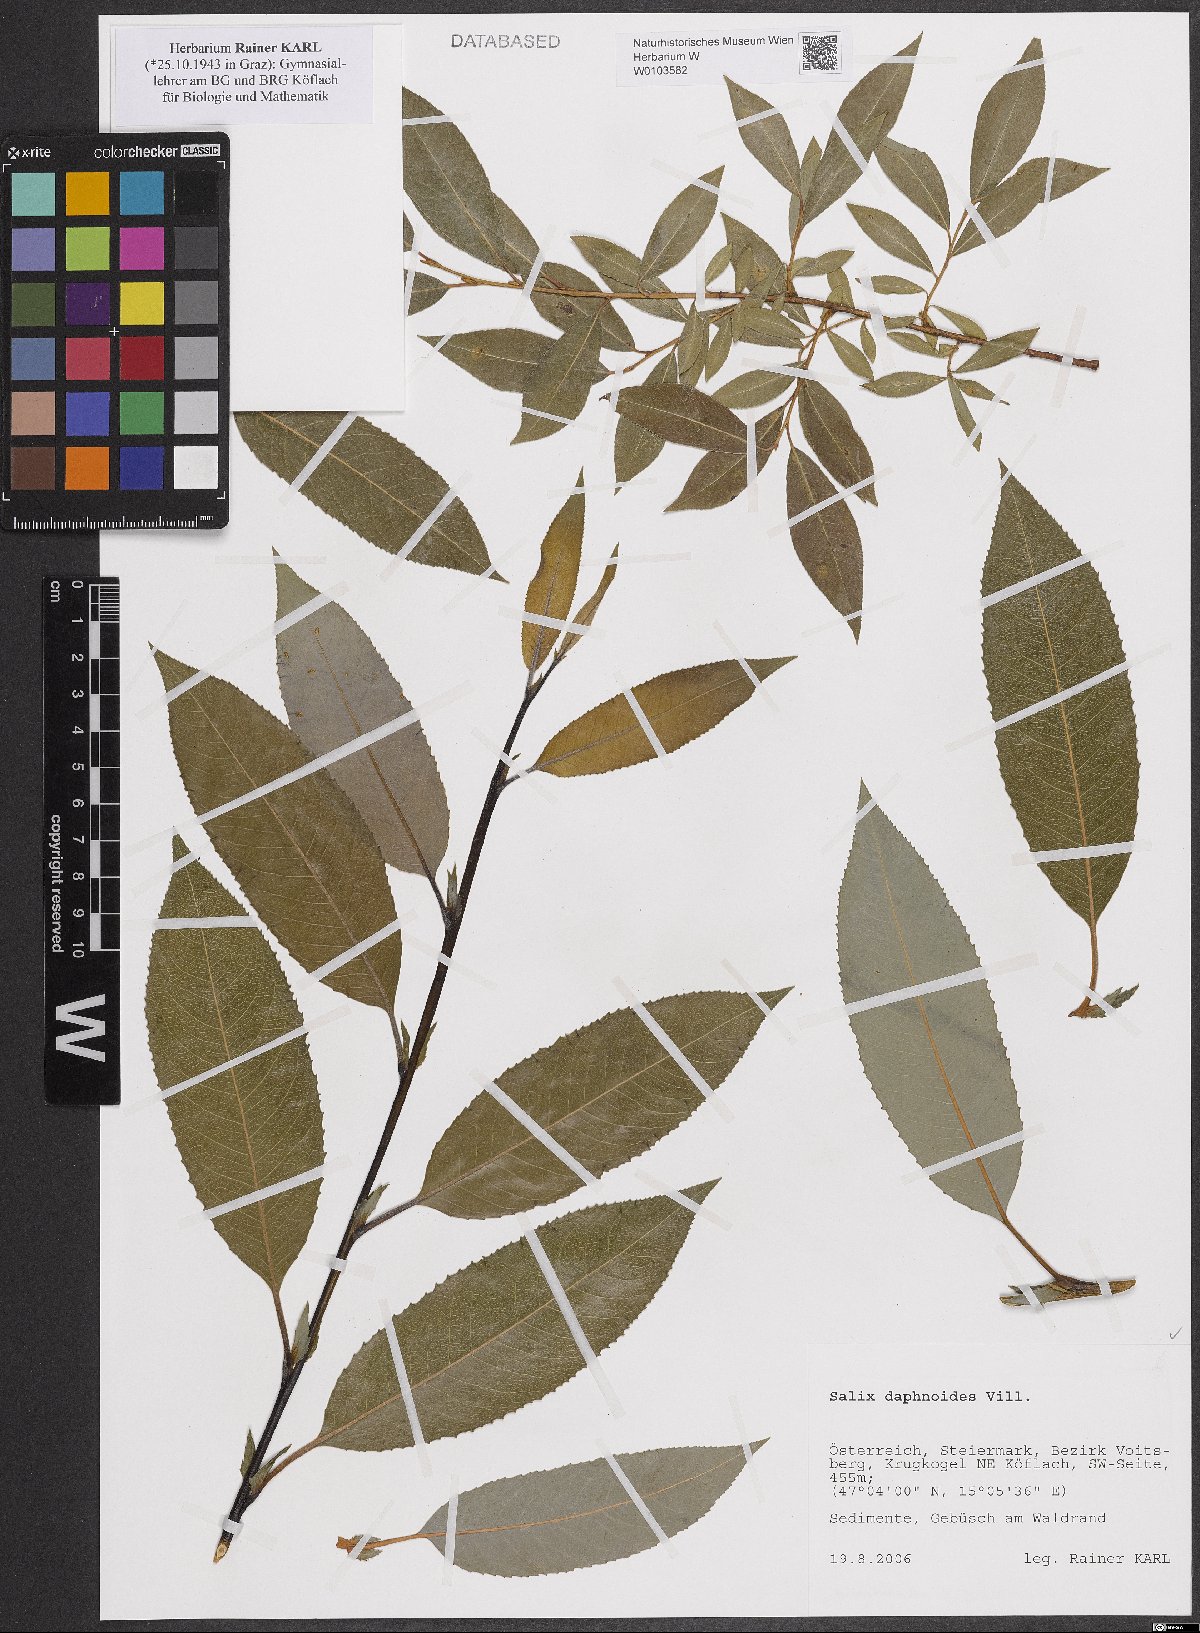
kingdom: Plantae
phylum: Tracheophyta
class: Magnoliopsida
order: Malpighiales
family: Salicaceae
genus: Salix
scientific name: Salix daphnoides
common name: European violet-willow
